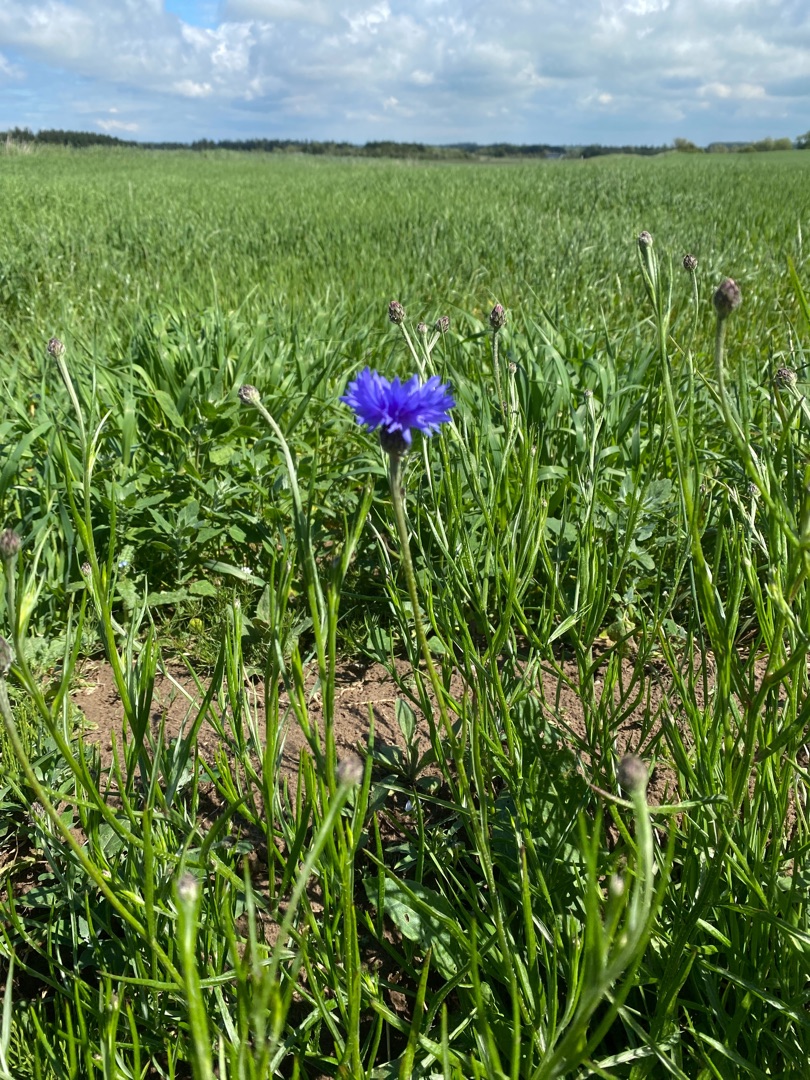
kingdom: Plantae
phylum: Tracheophyta
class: Magnoliopsida
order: Asterales
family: Asteraceae
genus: Centaurea
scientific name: Centaurea cyanus
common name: Kornblomst
